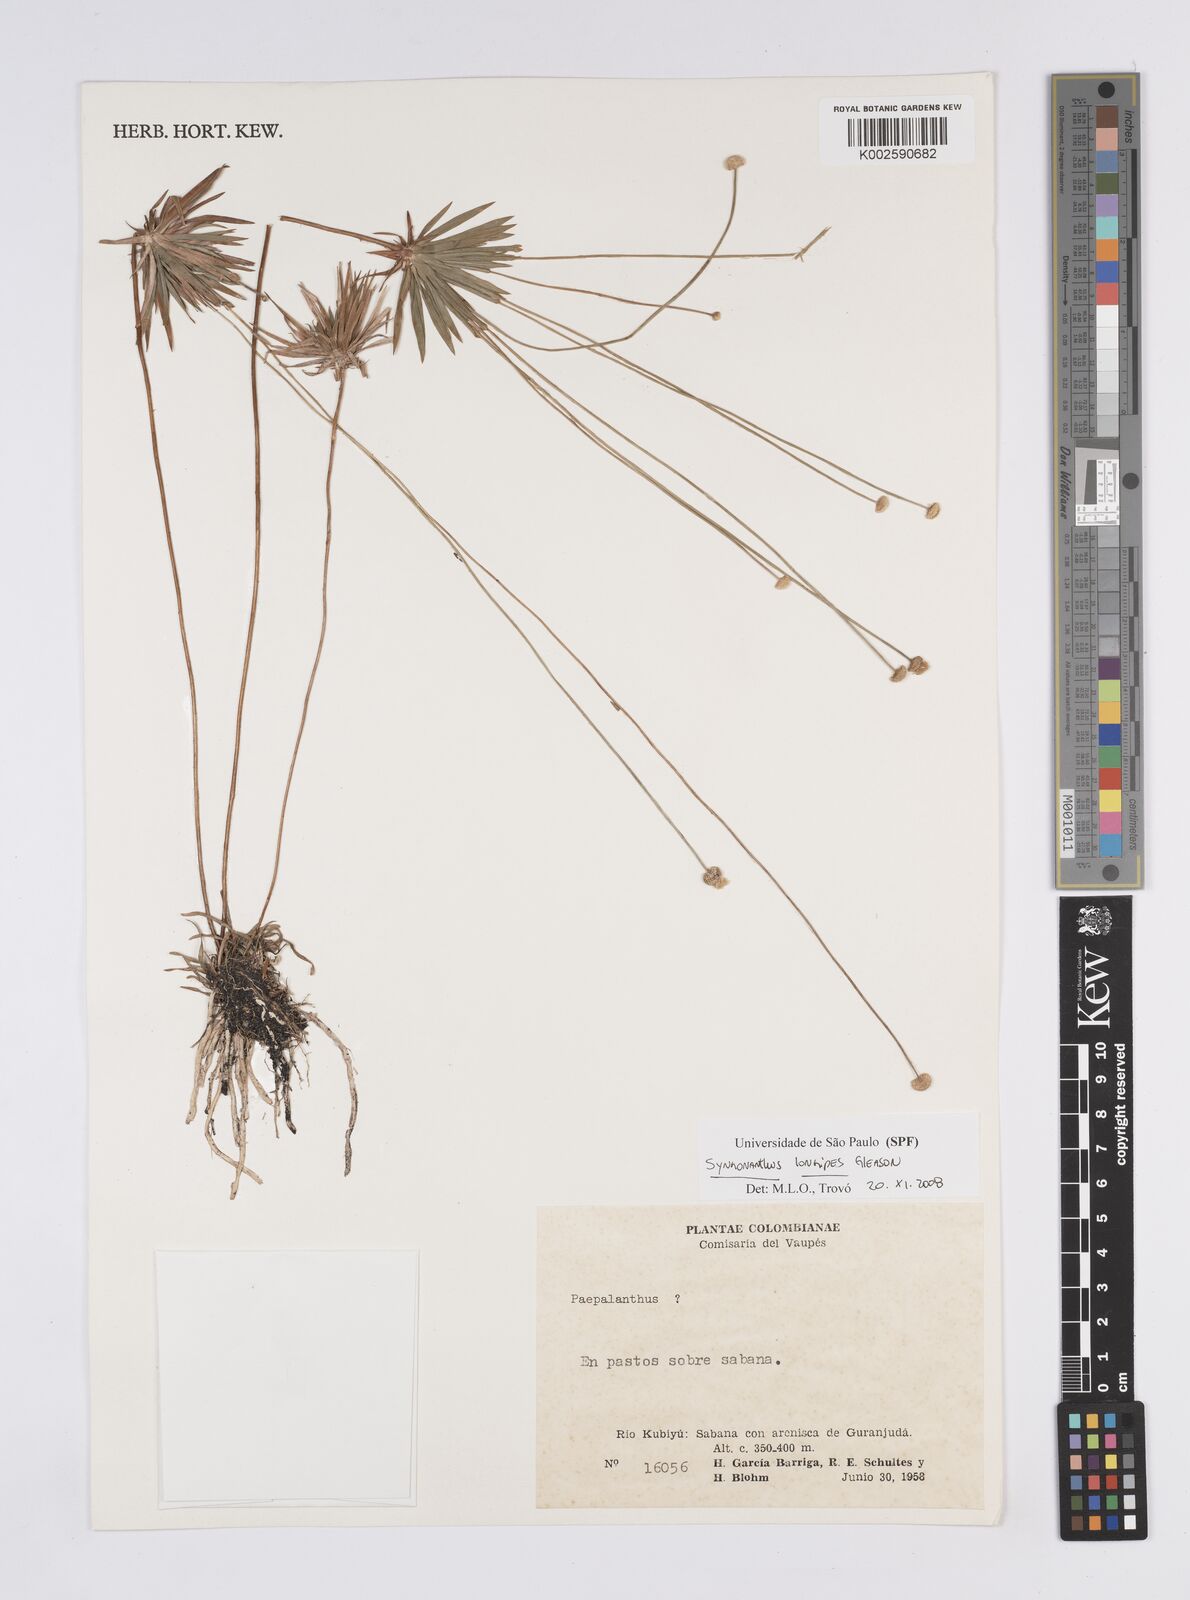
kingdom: Plantae
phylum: Tracheophyta
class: Liliopsida
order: Poales
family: Eriocaulaceae
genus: Syngonanthus
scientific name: Syngonanthus longipes
